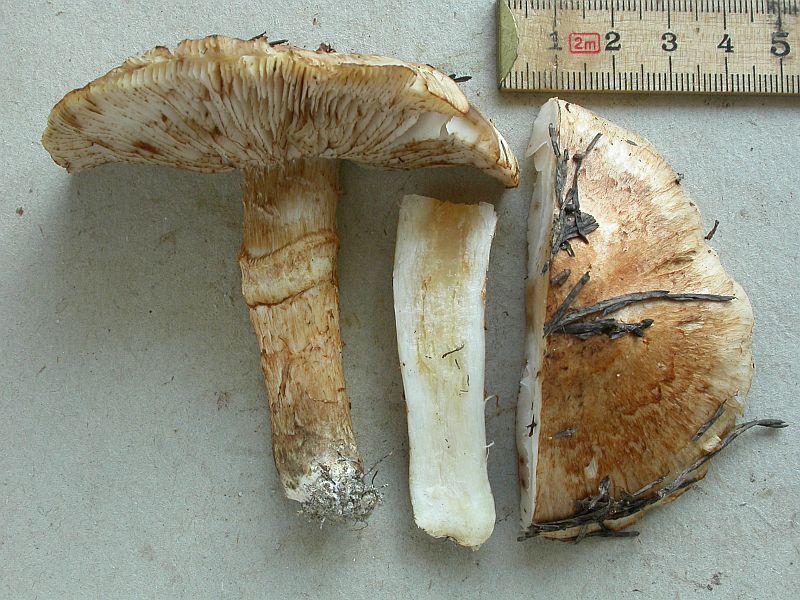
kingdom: Fungi
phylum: Basidiomycota
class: Agaricomycetes
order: Agaricales
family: Tricholomataceae
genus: Tricholoma
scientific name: Tricholoma focale
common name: halsbånd-ridderhat
